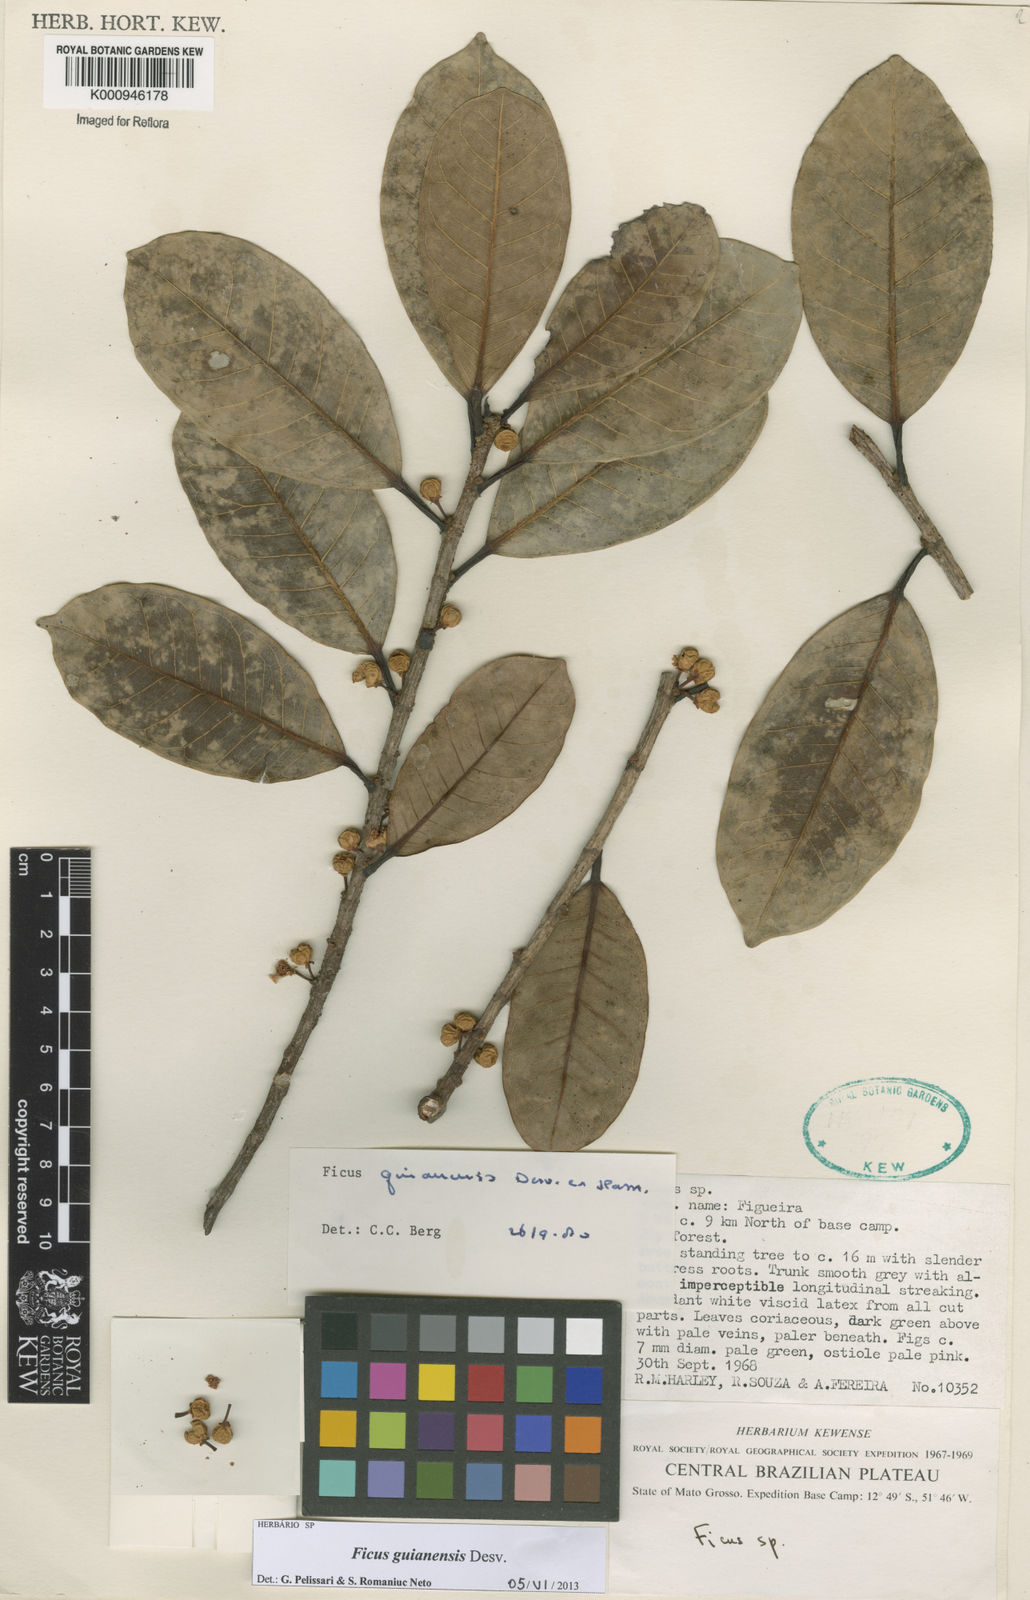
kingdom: Plantae
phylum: Tracheophyta
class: Magnoliopsida
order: Rosales
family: Moraceae
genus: Ficus
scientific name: Ficus
